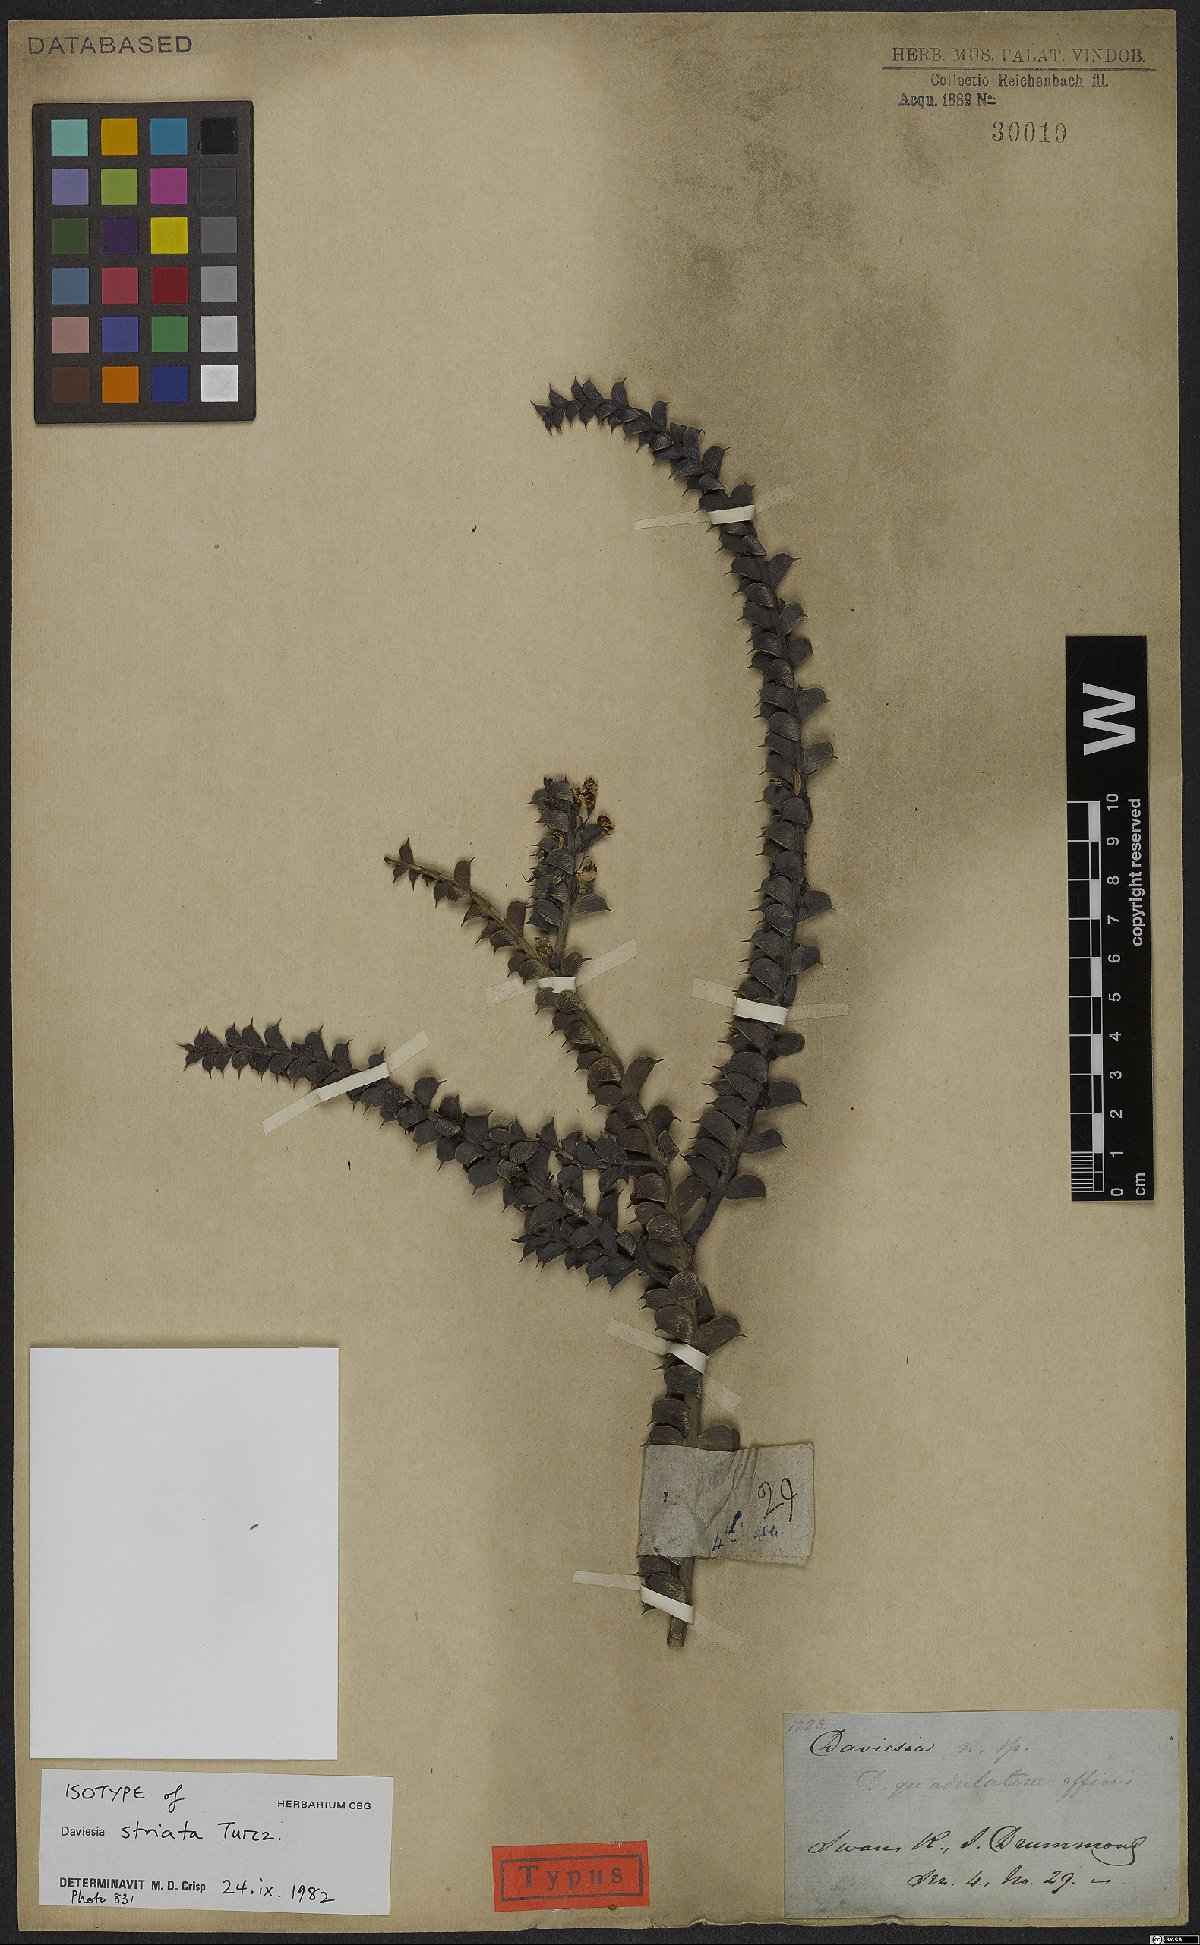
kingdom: Plantae
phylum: Tracheophyta
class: Magnoliopsida
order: Fabales
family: Fabaceae
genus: Daviesia
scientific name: Daviesia striata
